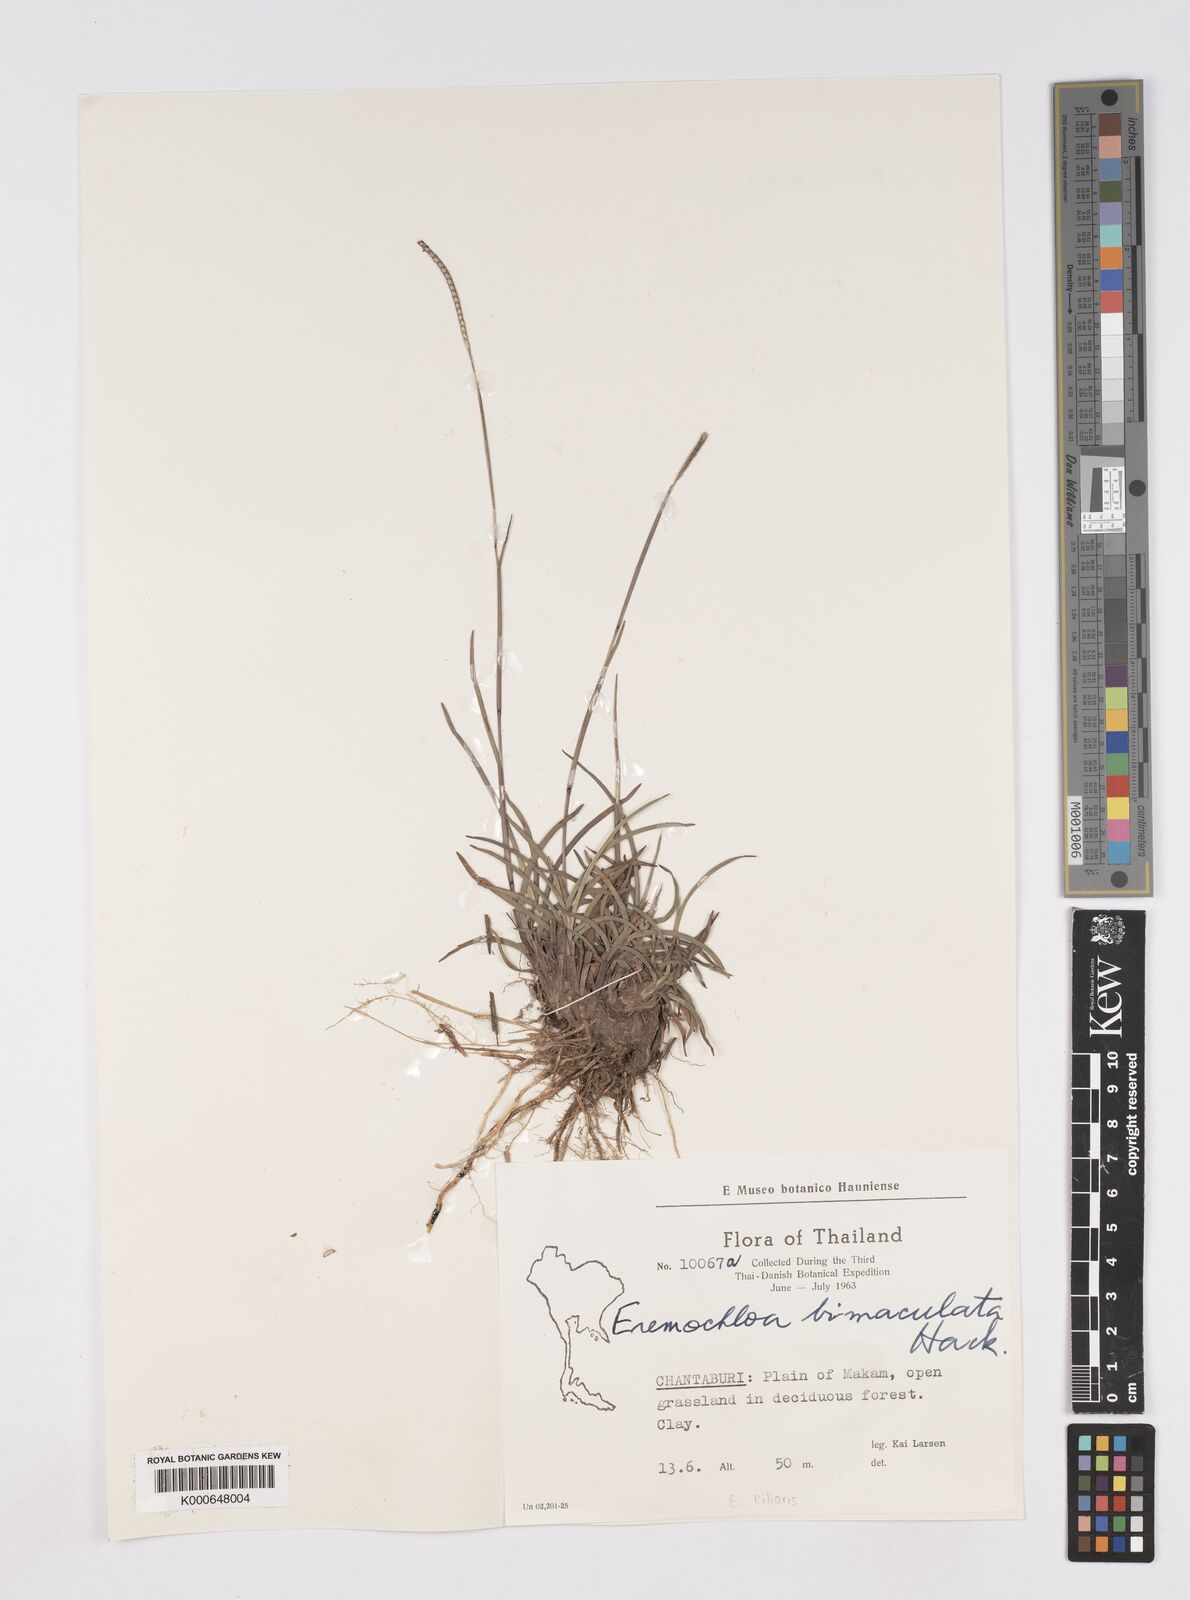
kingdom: Plantae
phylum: Tracheophyta
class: Liliopsida
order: Poales
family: Poaceae
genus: Eremochloa
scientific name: Eremochloa ciliaris
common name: Fringed centipede grass
